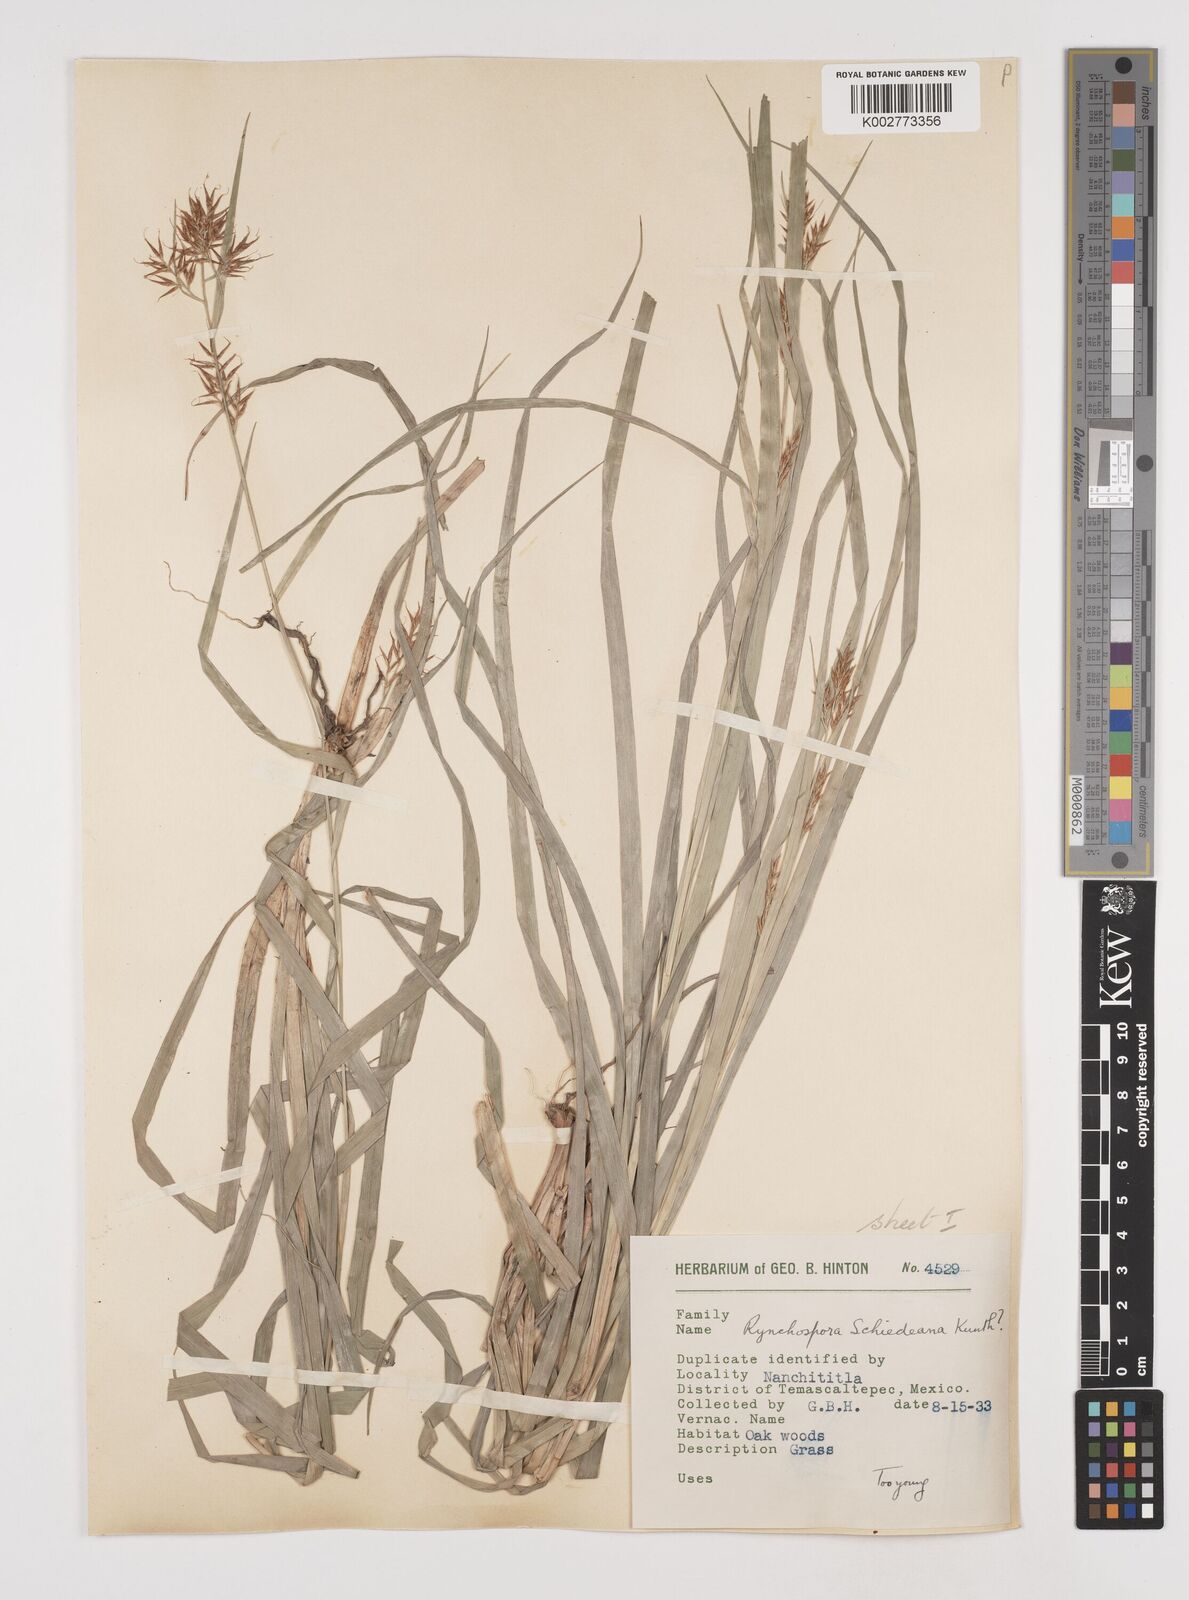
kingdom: Plantae
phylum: Tracheophyta
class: Liliopsida
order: Poales
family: Cyperaceae
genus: Rhynchospora
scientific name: Rhynchospora schiedeana
